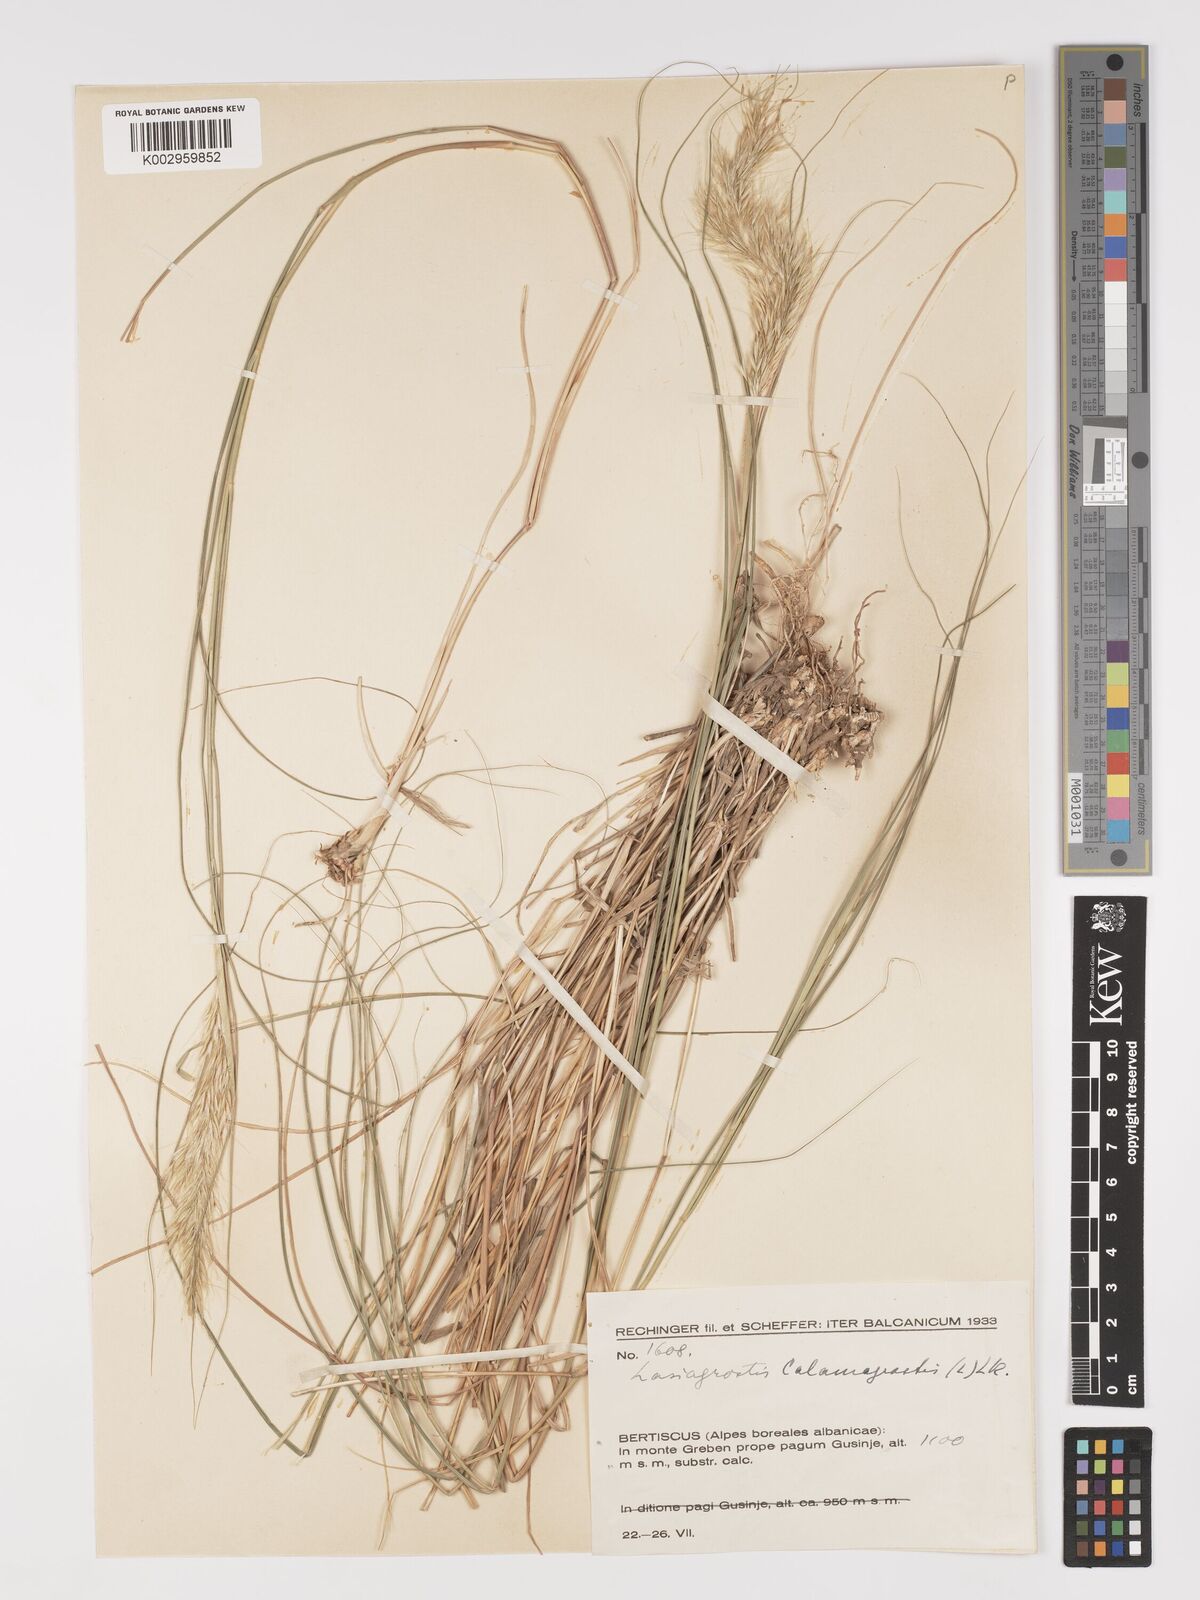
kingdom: Plantae
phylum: Tracheophyta
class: Liliopsida
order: Poales
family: Poaceae
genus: Achnatherum
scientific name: Achnatherum calamagrostis
